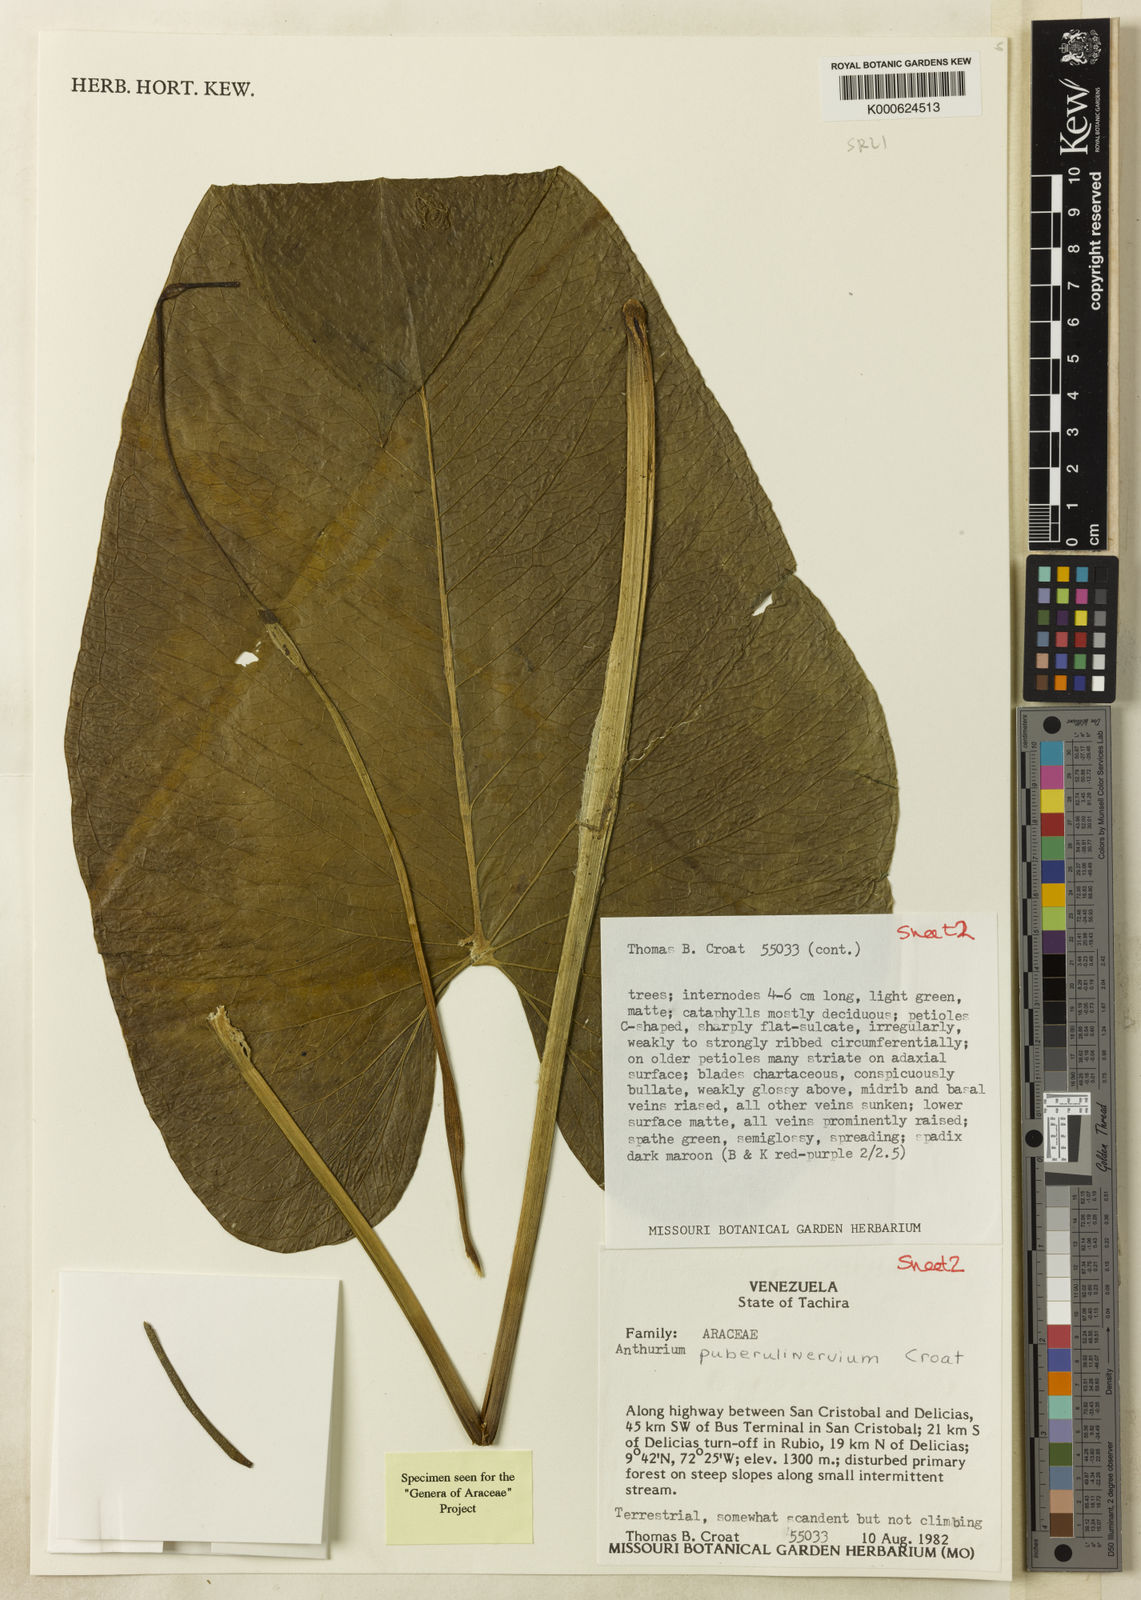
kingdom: Plantae
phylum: Tracheophyta
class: Liliopsida
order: Alismatales
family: Araceae
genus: Anthurium
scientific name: Anthurium puberulinervium
